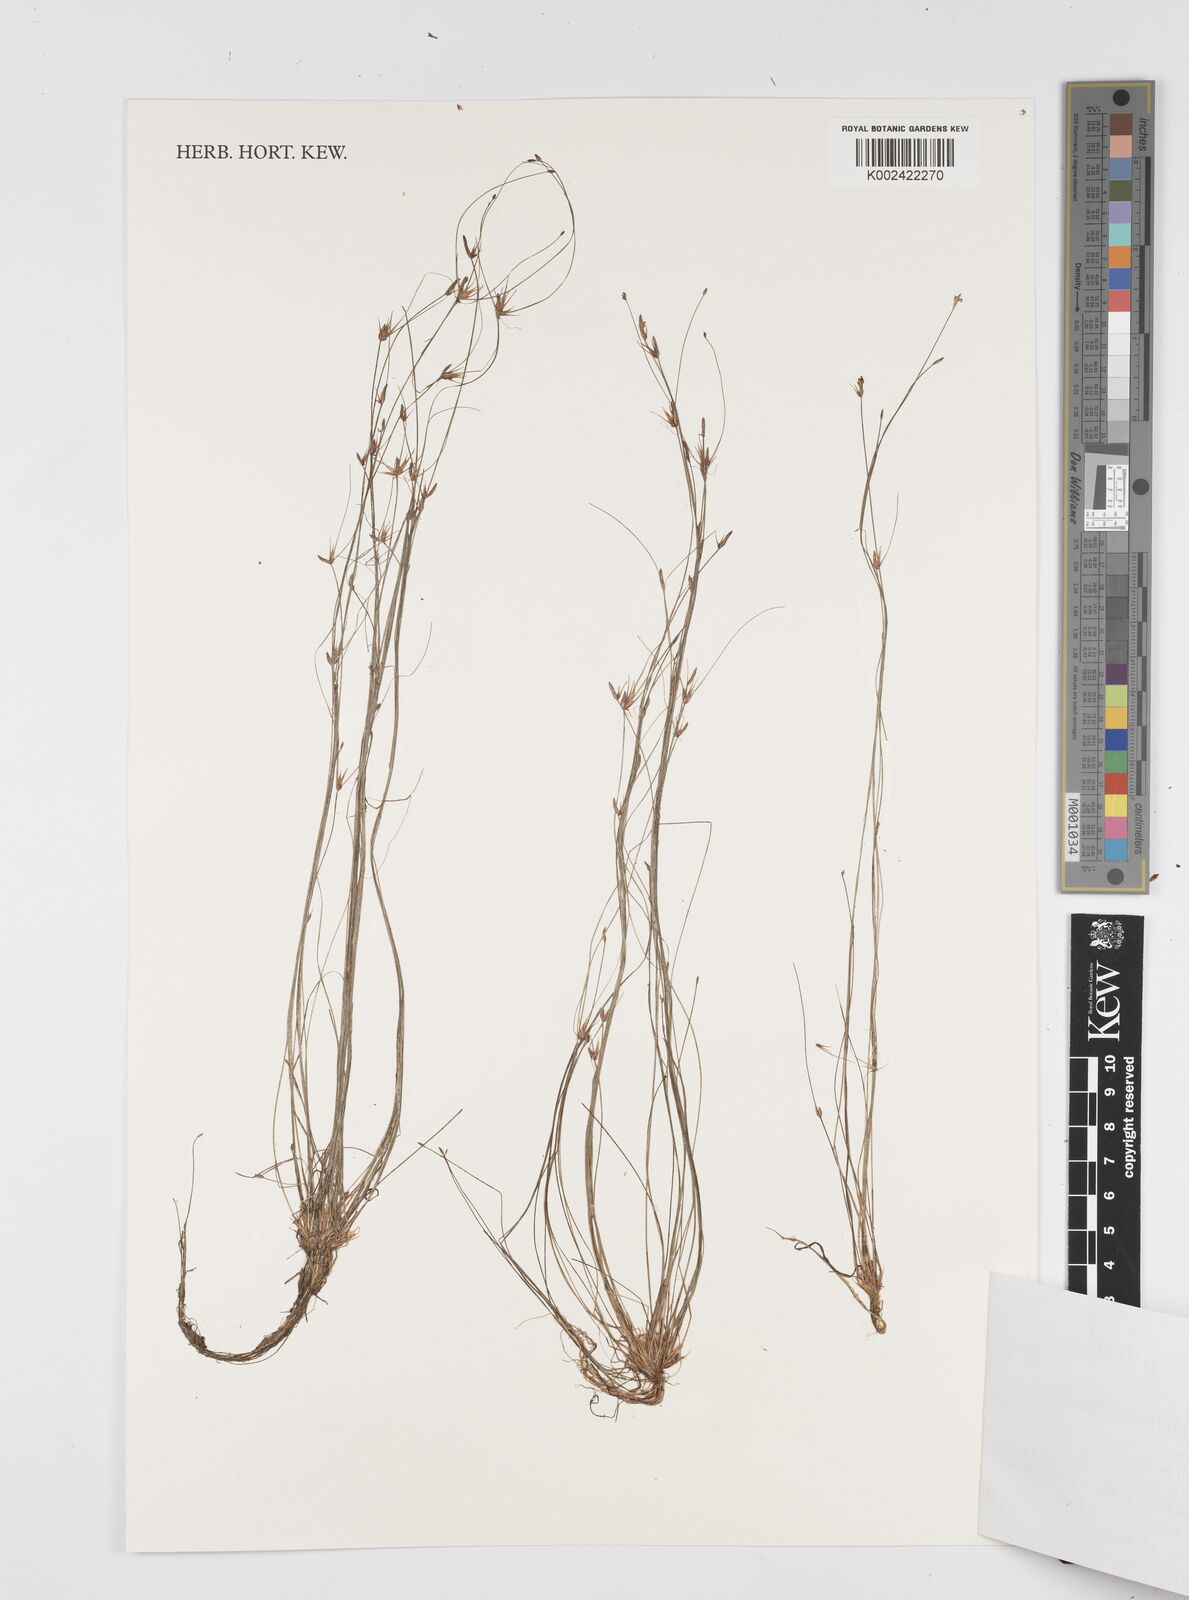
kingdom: Plantae
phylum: Tracheophyta
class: Liliopsida
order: Poales
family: Cyperaceae
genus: Eleocharis
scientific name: Eleocharis congesta
